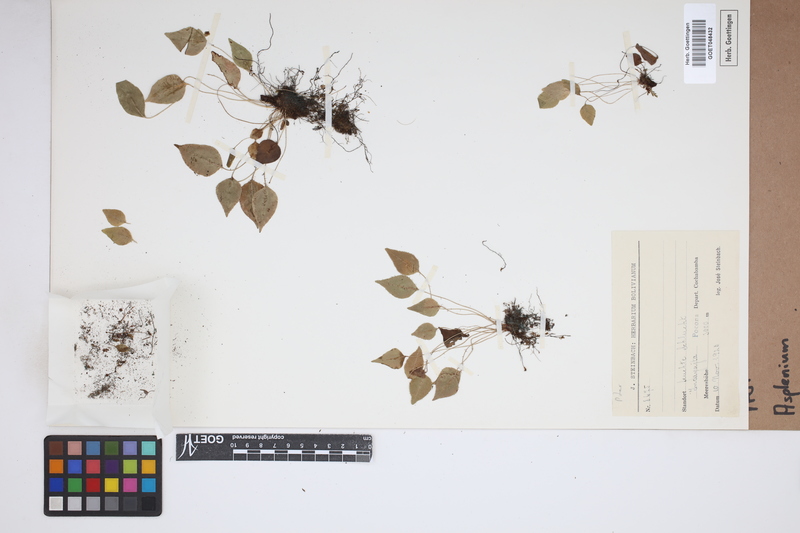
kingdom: Plantae
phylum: Tracheophyta
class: Polypodiopsida
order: Polypodiales
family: Aspleniaceae
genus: Asplenium
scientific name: Asplenium
